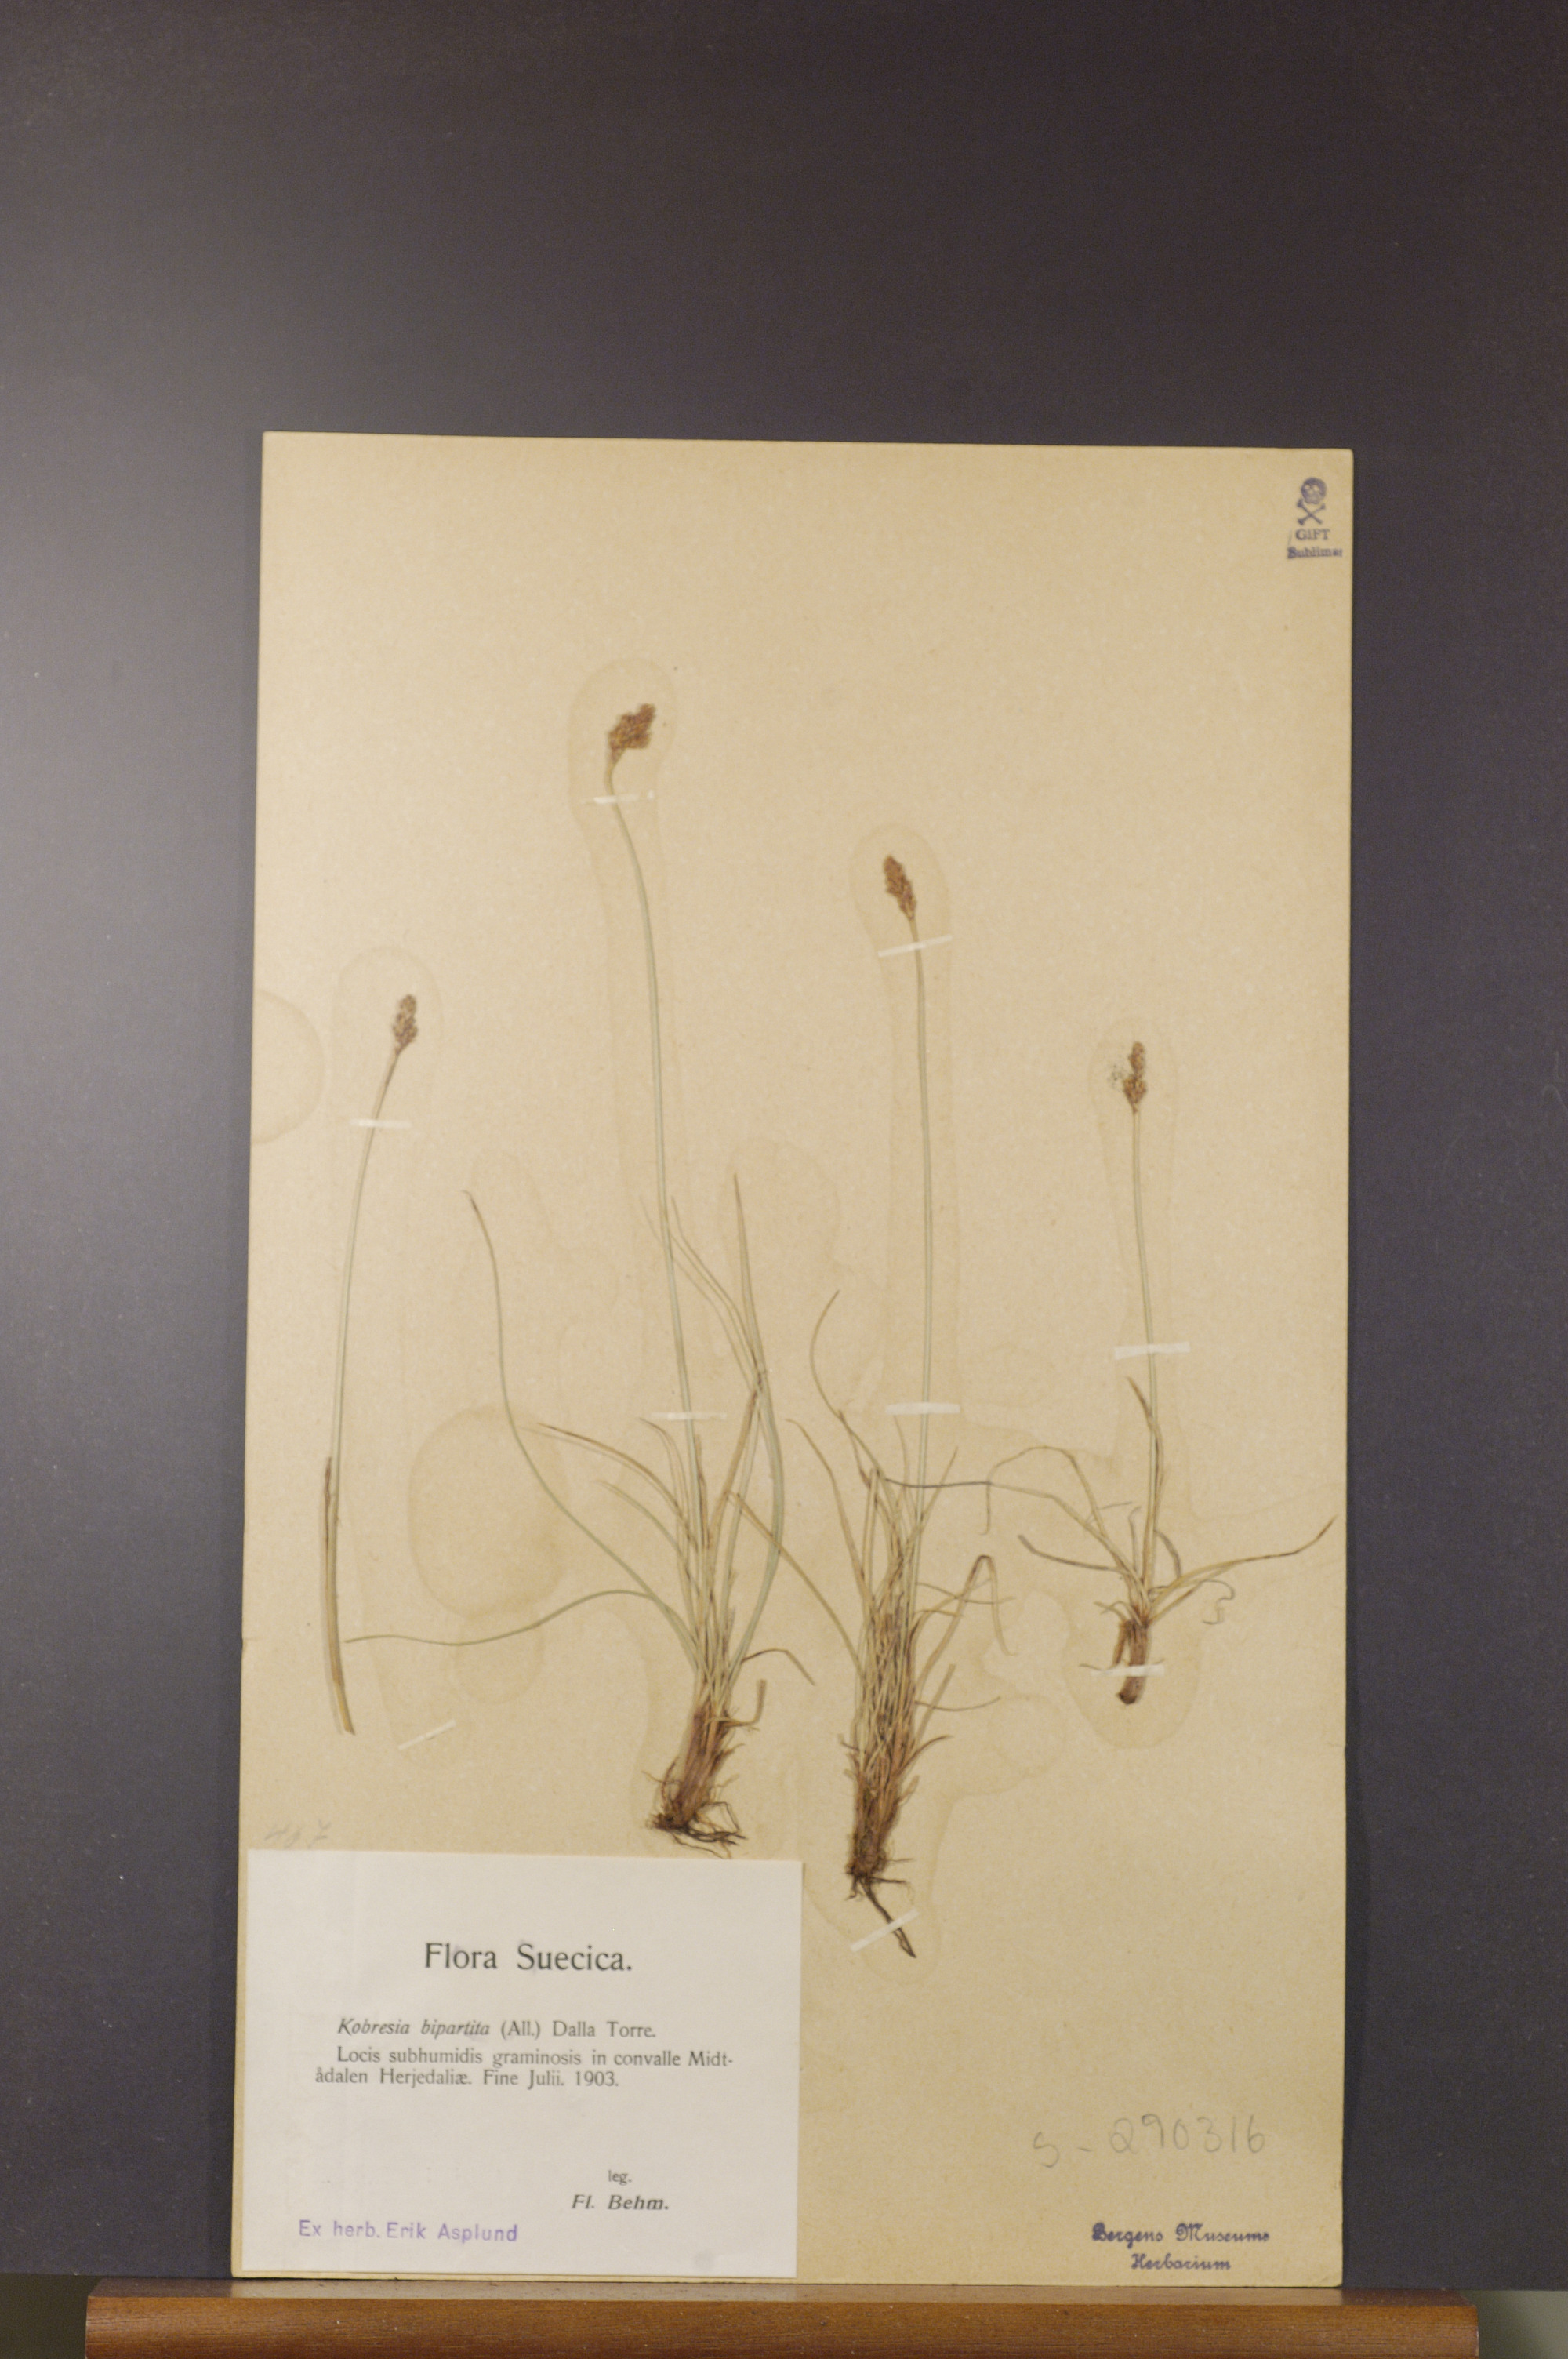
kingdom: Plantae
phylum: Tracheophyta
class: Liliopsida
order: Poales
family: Cyperaceae
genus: Carex
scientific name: Carex simpliciuscula
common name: Simple bog sedge
